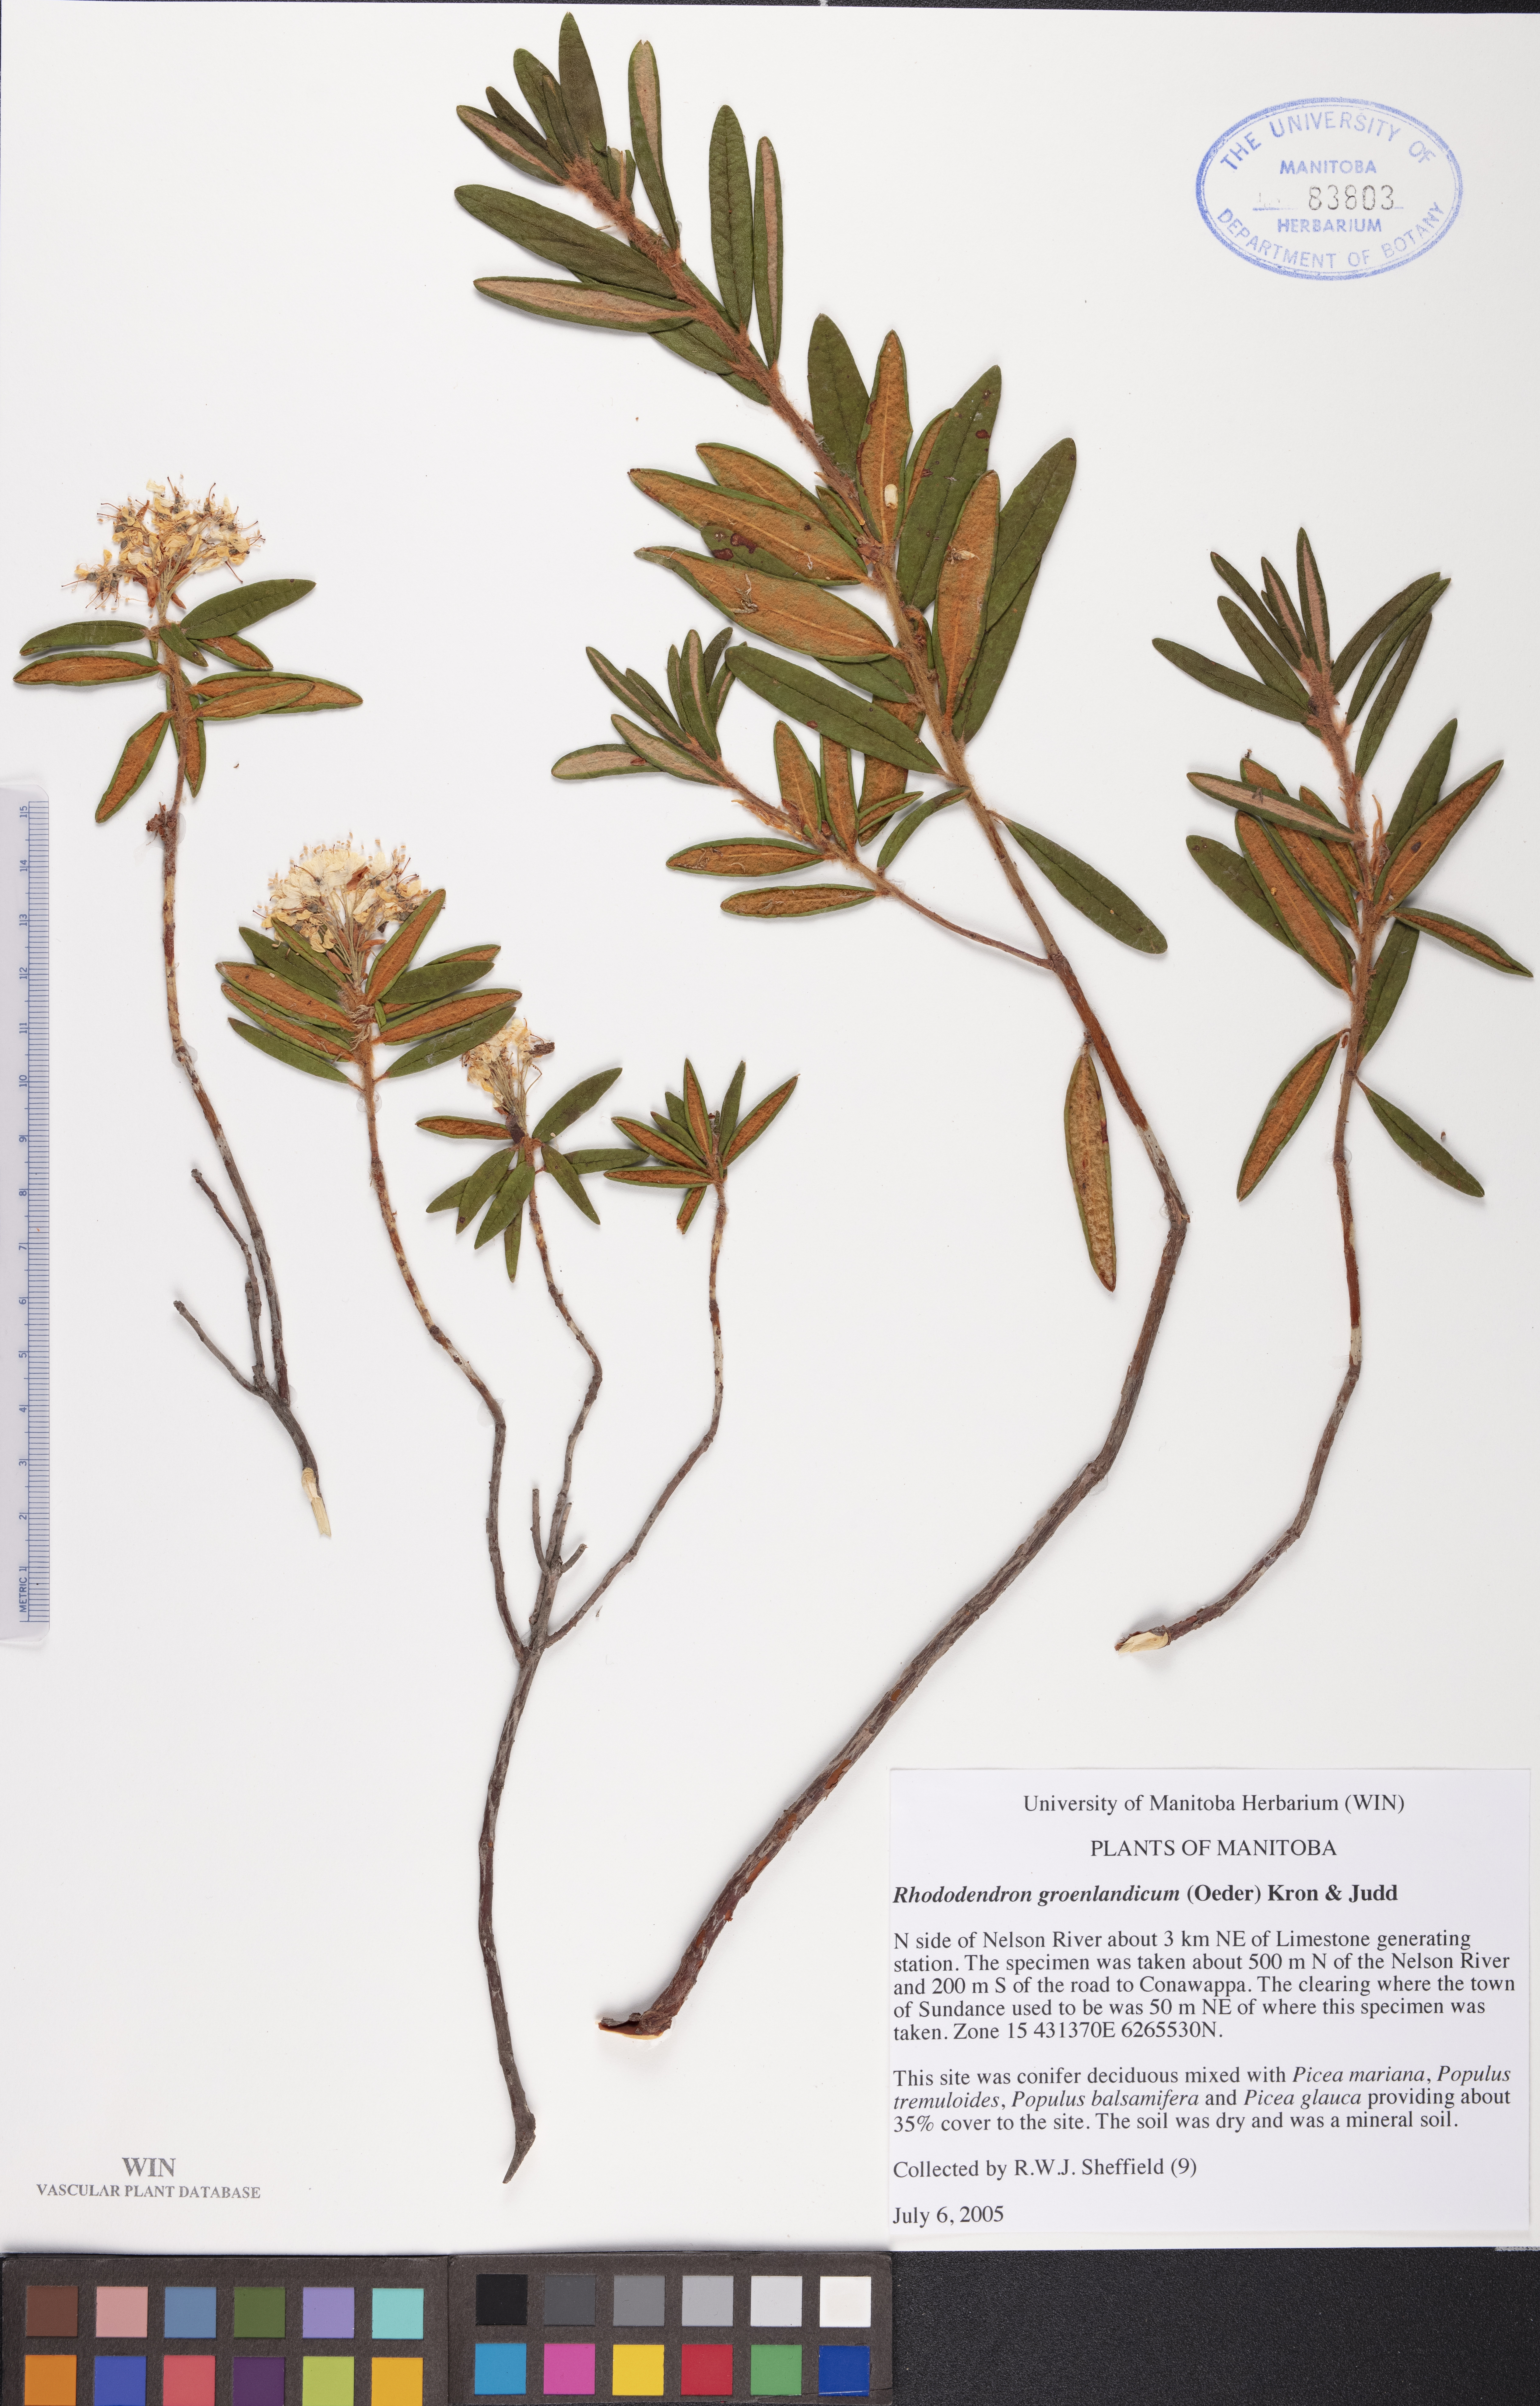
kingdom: Plantae
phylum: Tracheophyta
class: Magnoliopsida
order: Ericales
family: Ericaceae
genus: Rhododendron
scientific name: Rhododendron groenlandicum
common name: Bog labrador tea
